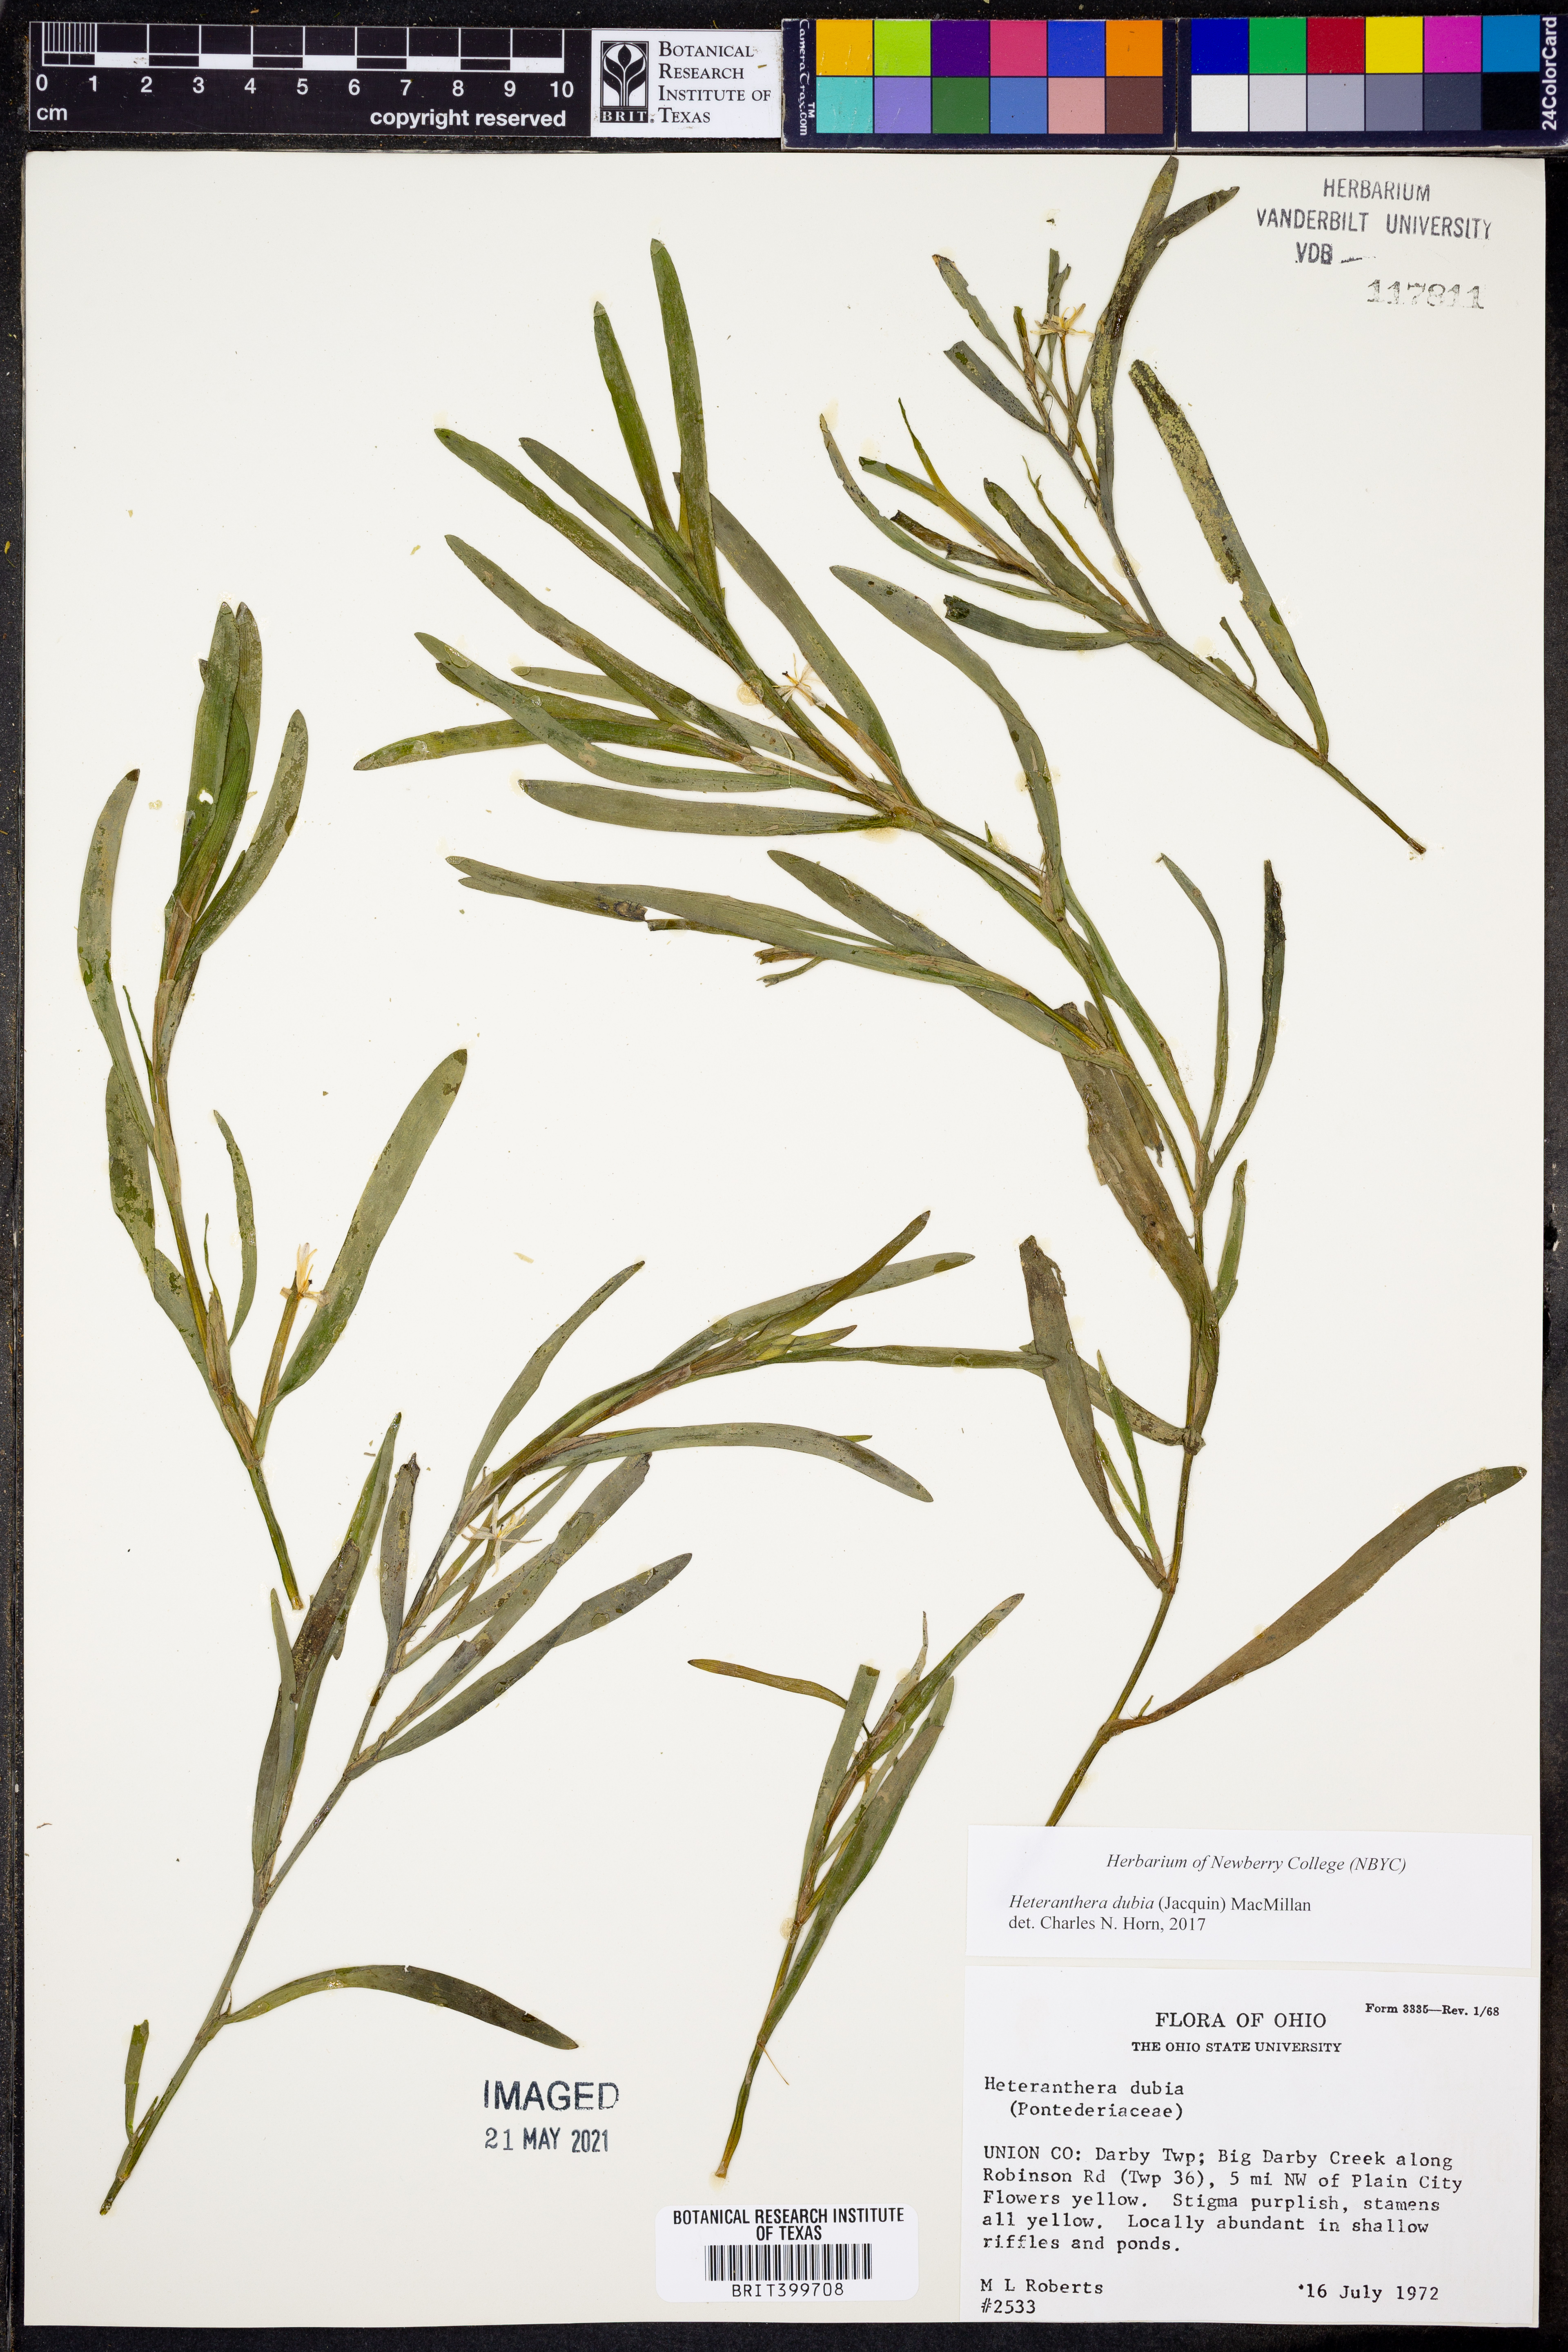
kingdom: Plantae
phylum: Tracheophyta
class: Liliopsida
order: Commelinales
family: Pontederiaceae
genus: Heteranthera
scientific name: Heteranthera dubia
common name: Grass-leaved mud plantain
